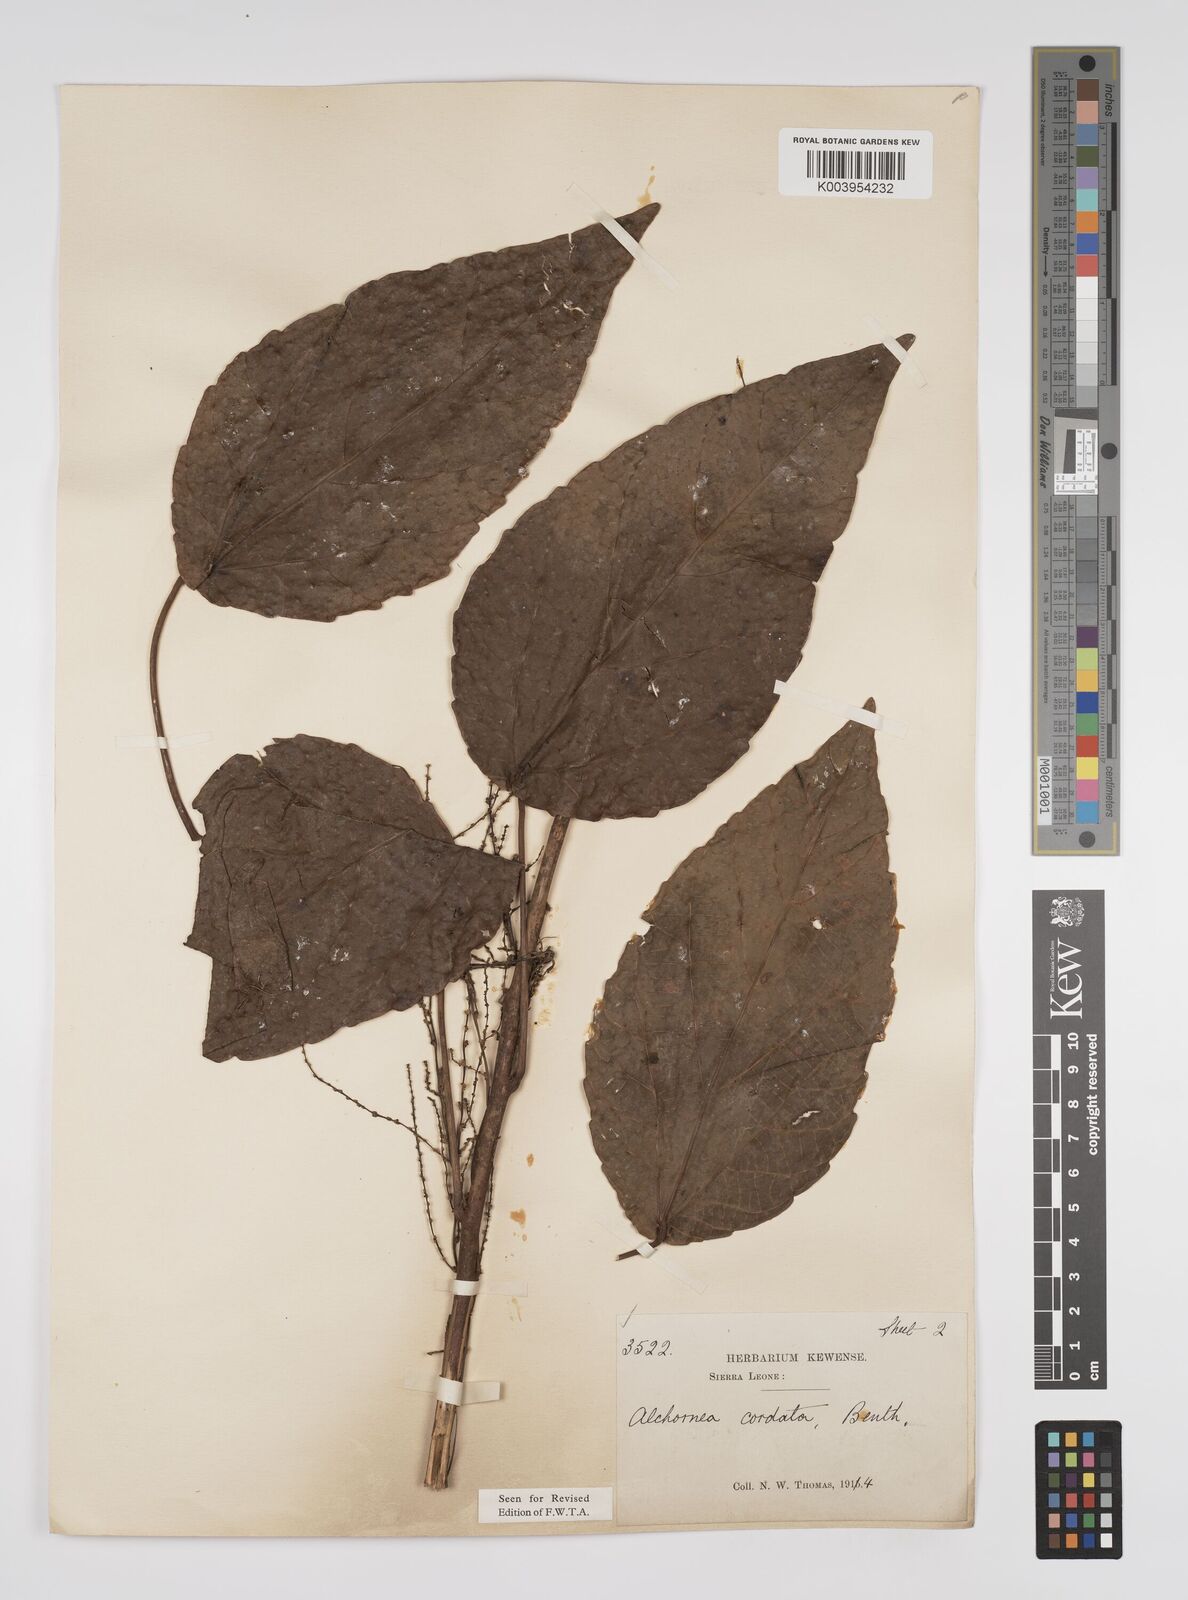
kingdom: Plantae
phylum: Tracheophyta
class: Magnoliopsida
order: Malpighiales
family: Euphorbiaceae
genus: Alchornea
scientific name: Alchornea cordifolia
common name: Christmasbush
